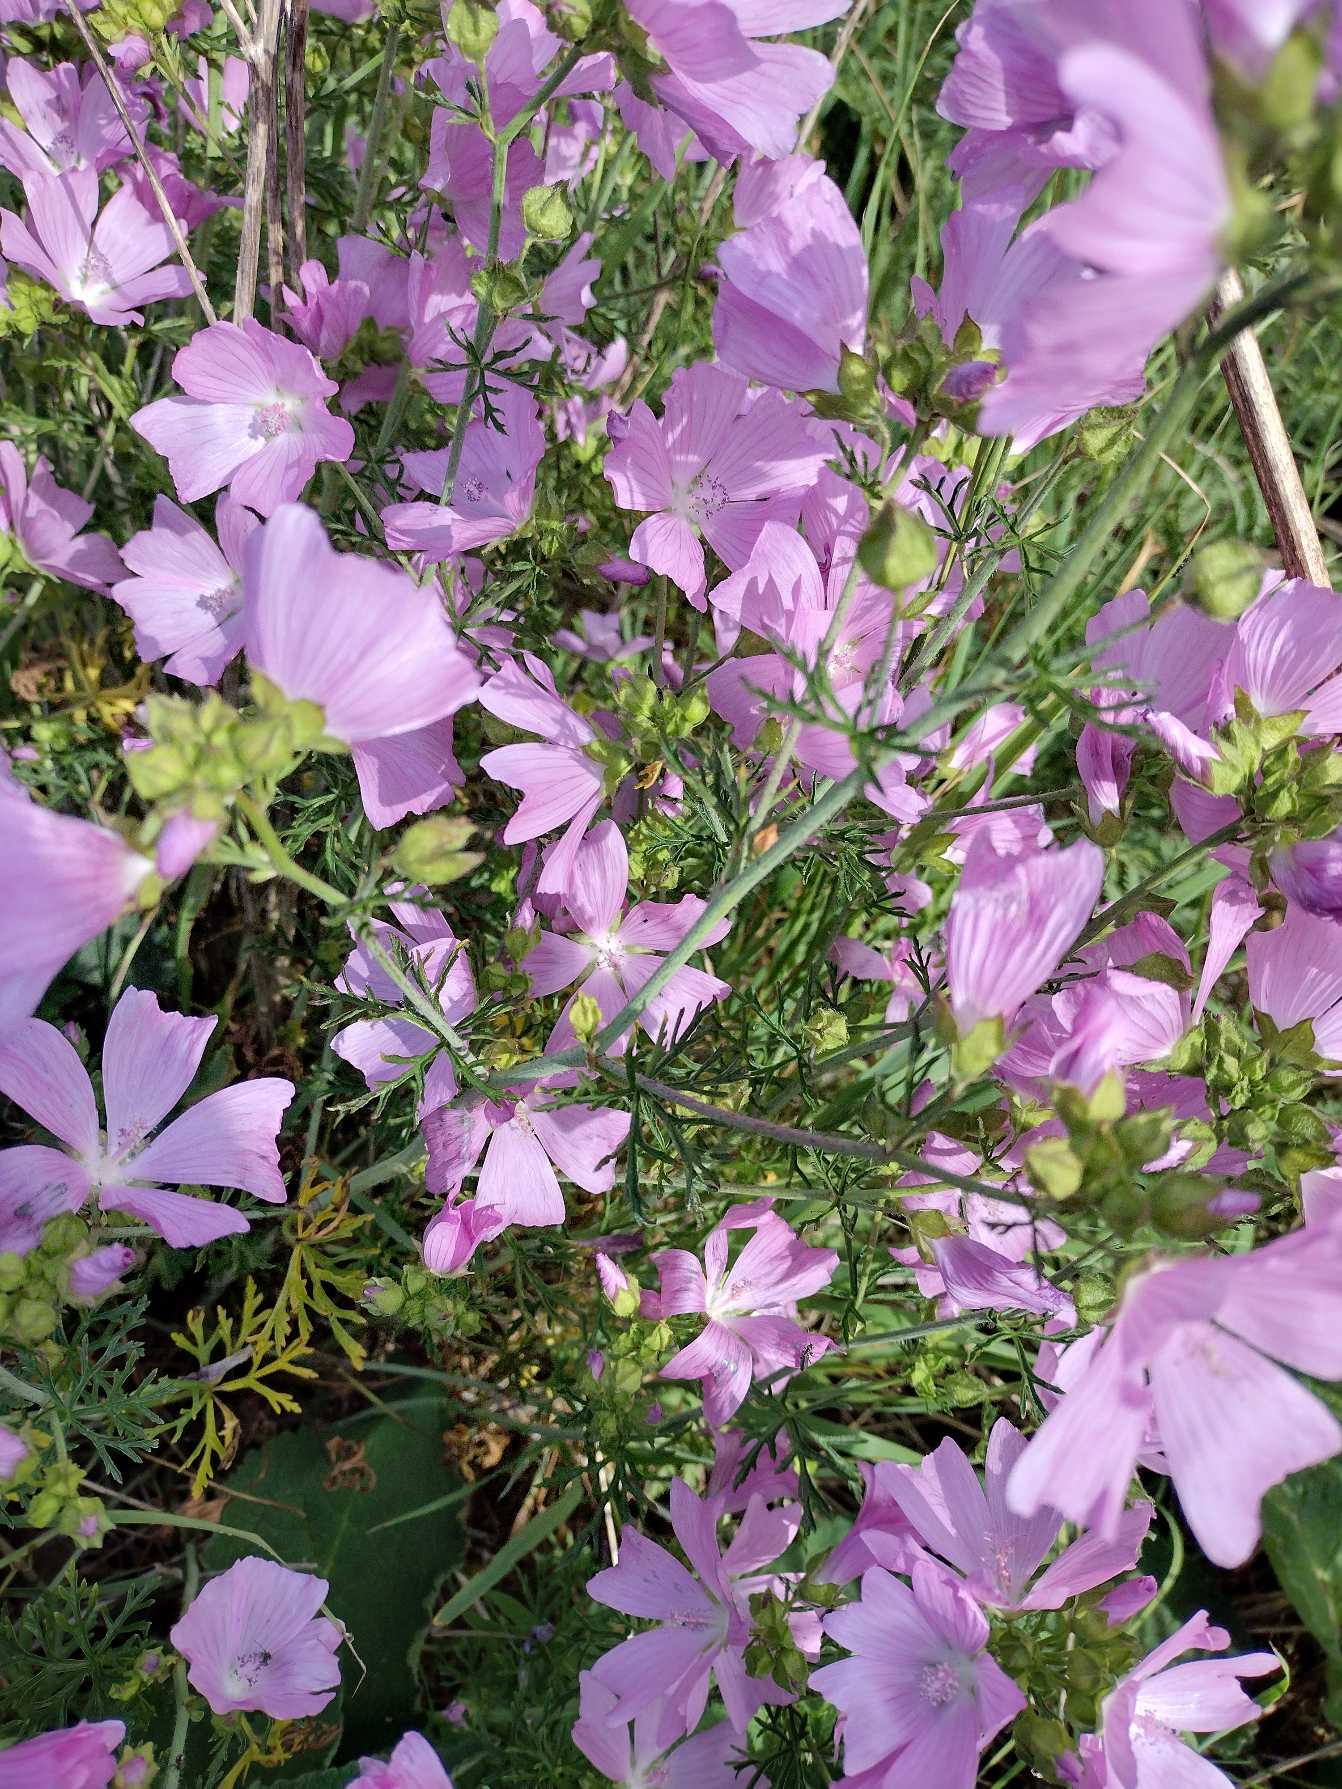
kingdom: Plantae
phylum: Tracheophyta
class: Magnoliopsida
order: Malvales
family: Malvaceae
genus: Malva
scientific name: Malva
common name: Katostslægten
